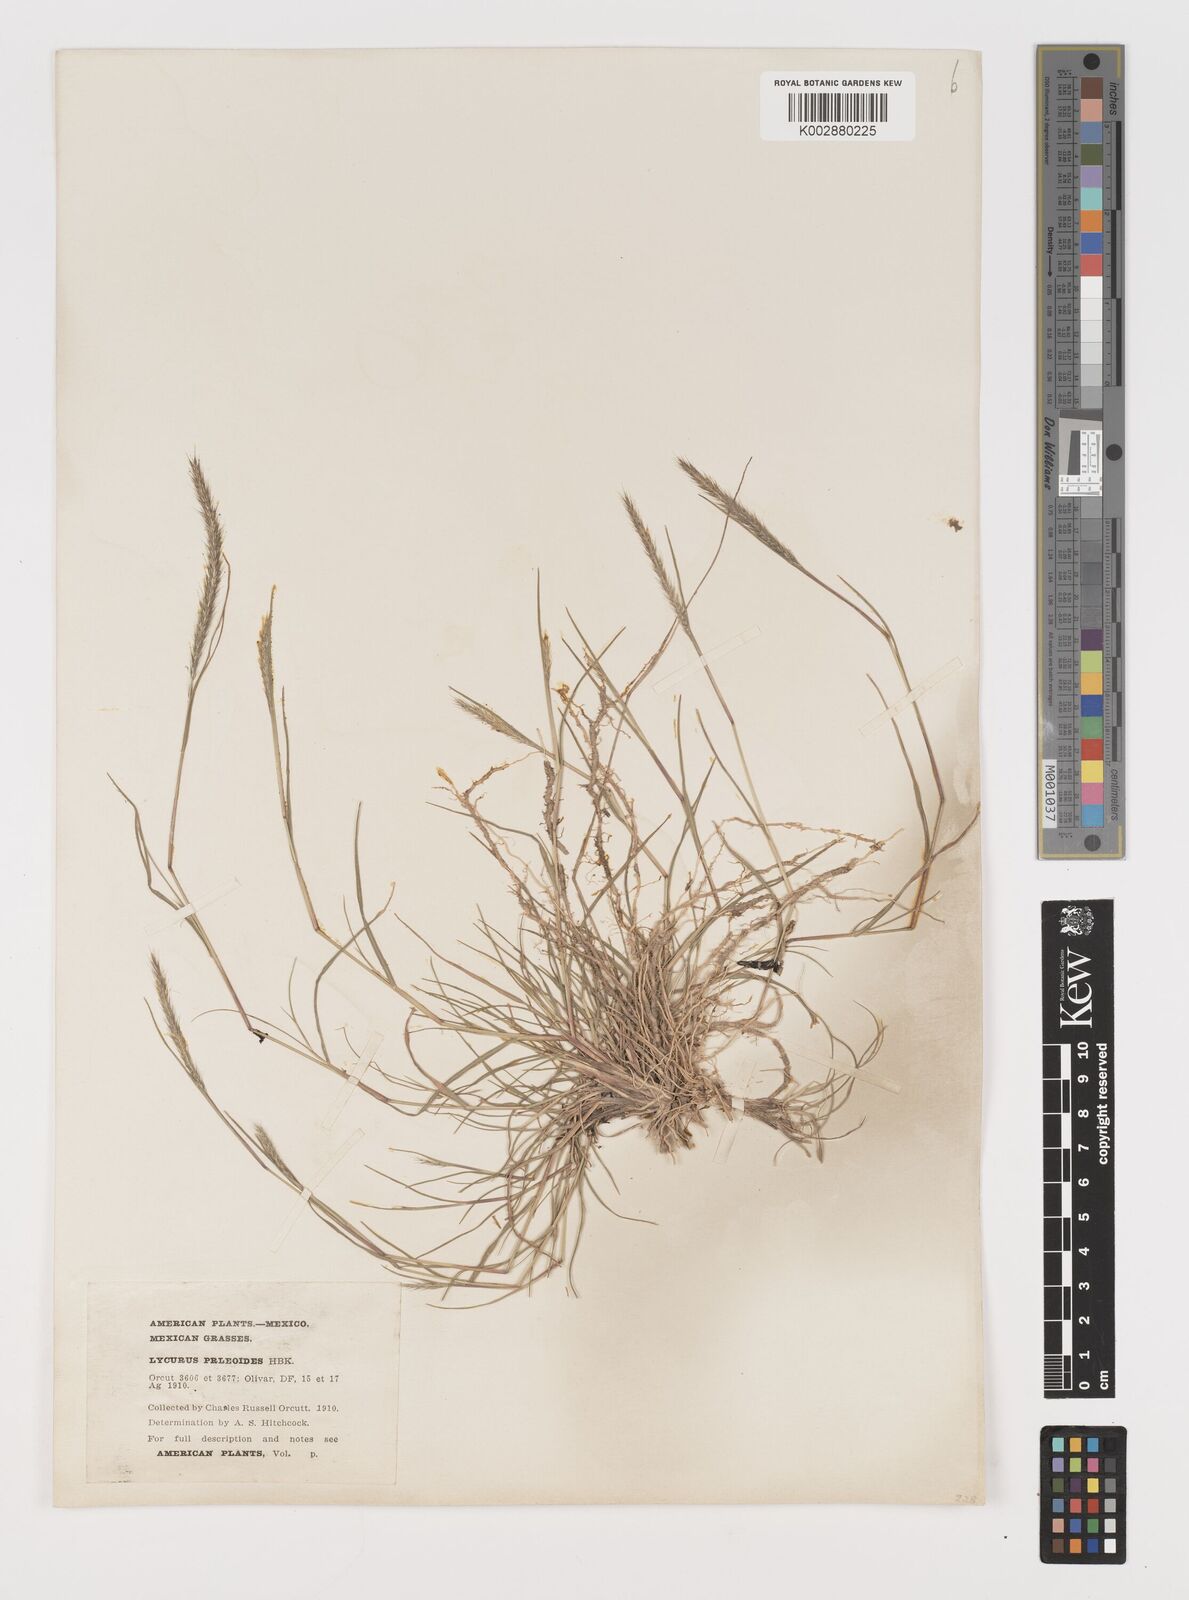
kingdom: Plantae
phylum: Tracheophyta
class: Liliopsida
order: Poales
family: Poaceae
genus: Muhlenbergia
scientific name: Muhlenbergia phleoides
